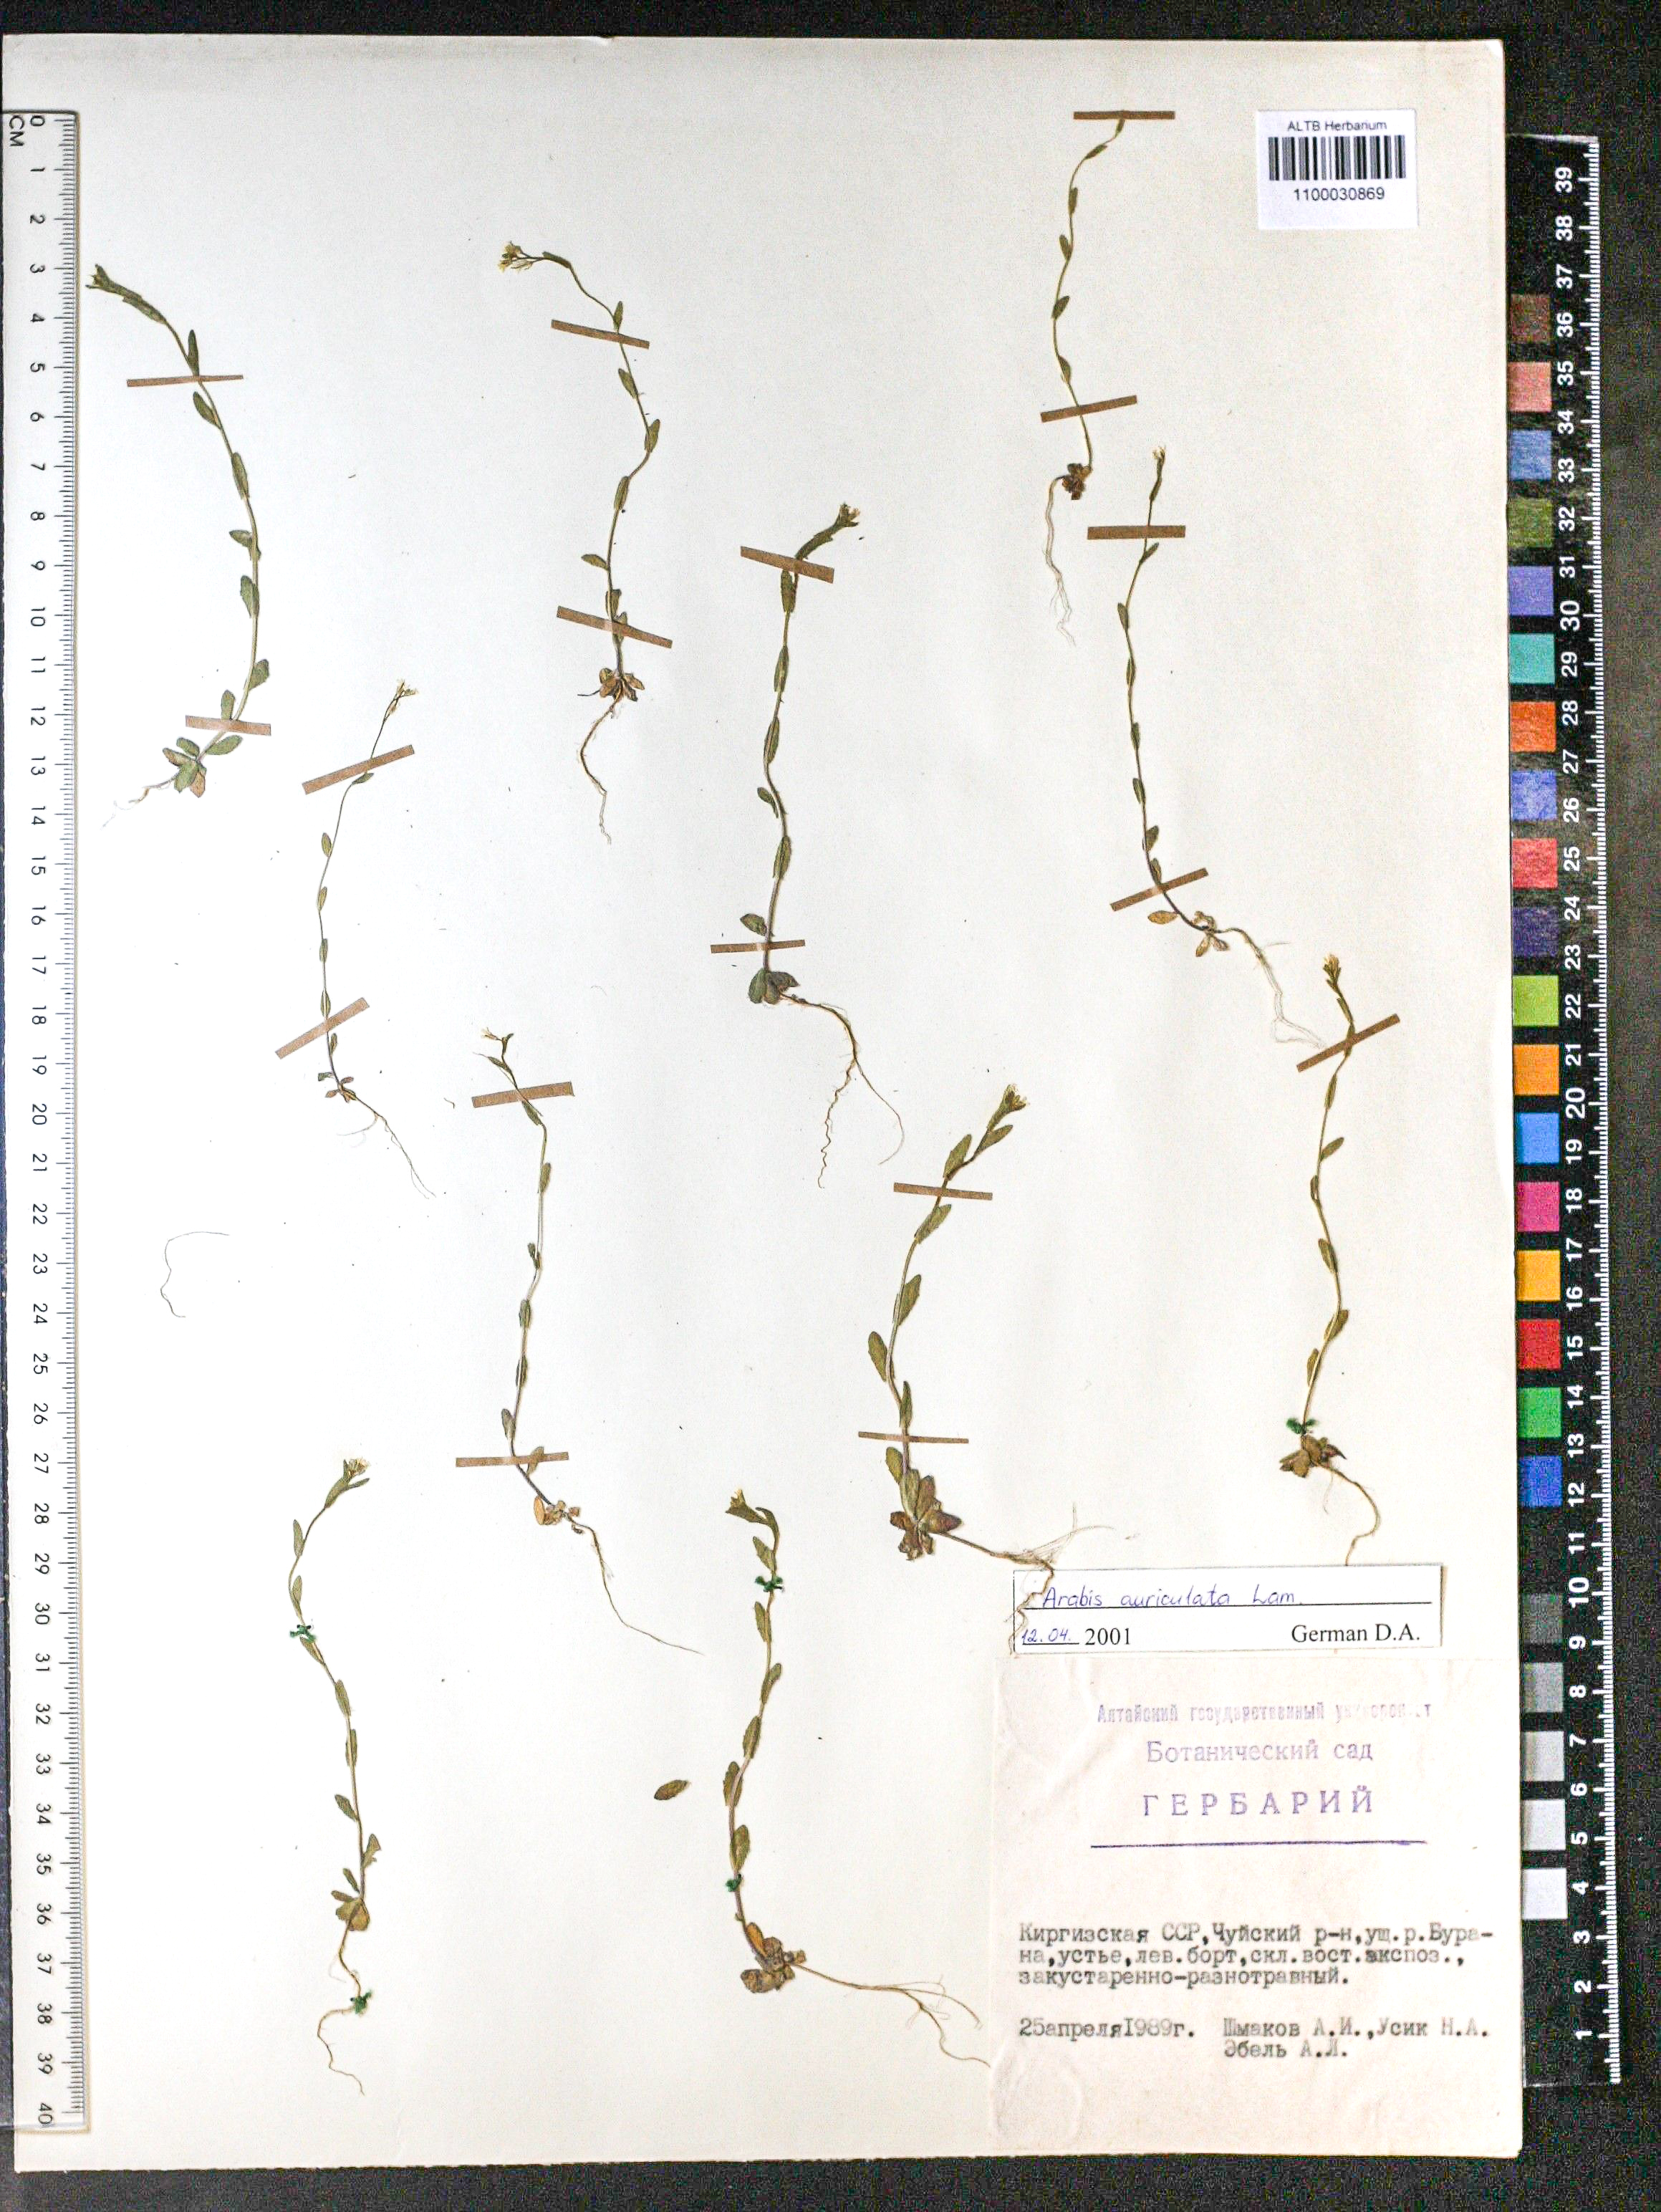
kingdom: Plantae
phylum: Tracheophyta
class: Magnoliopsida
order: Brassicales
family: Brassicaceae
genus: Arabis
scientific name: Arabis auriculata
